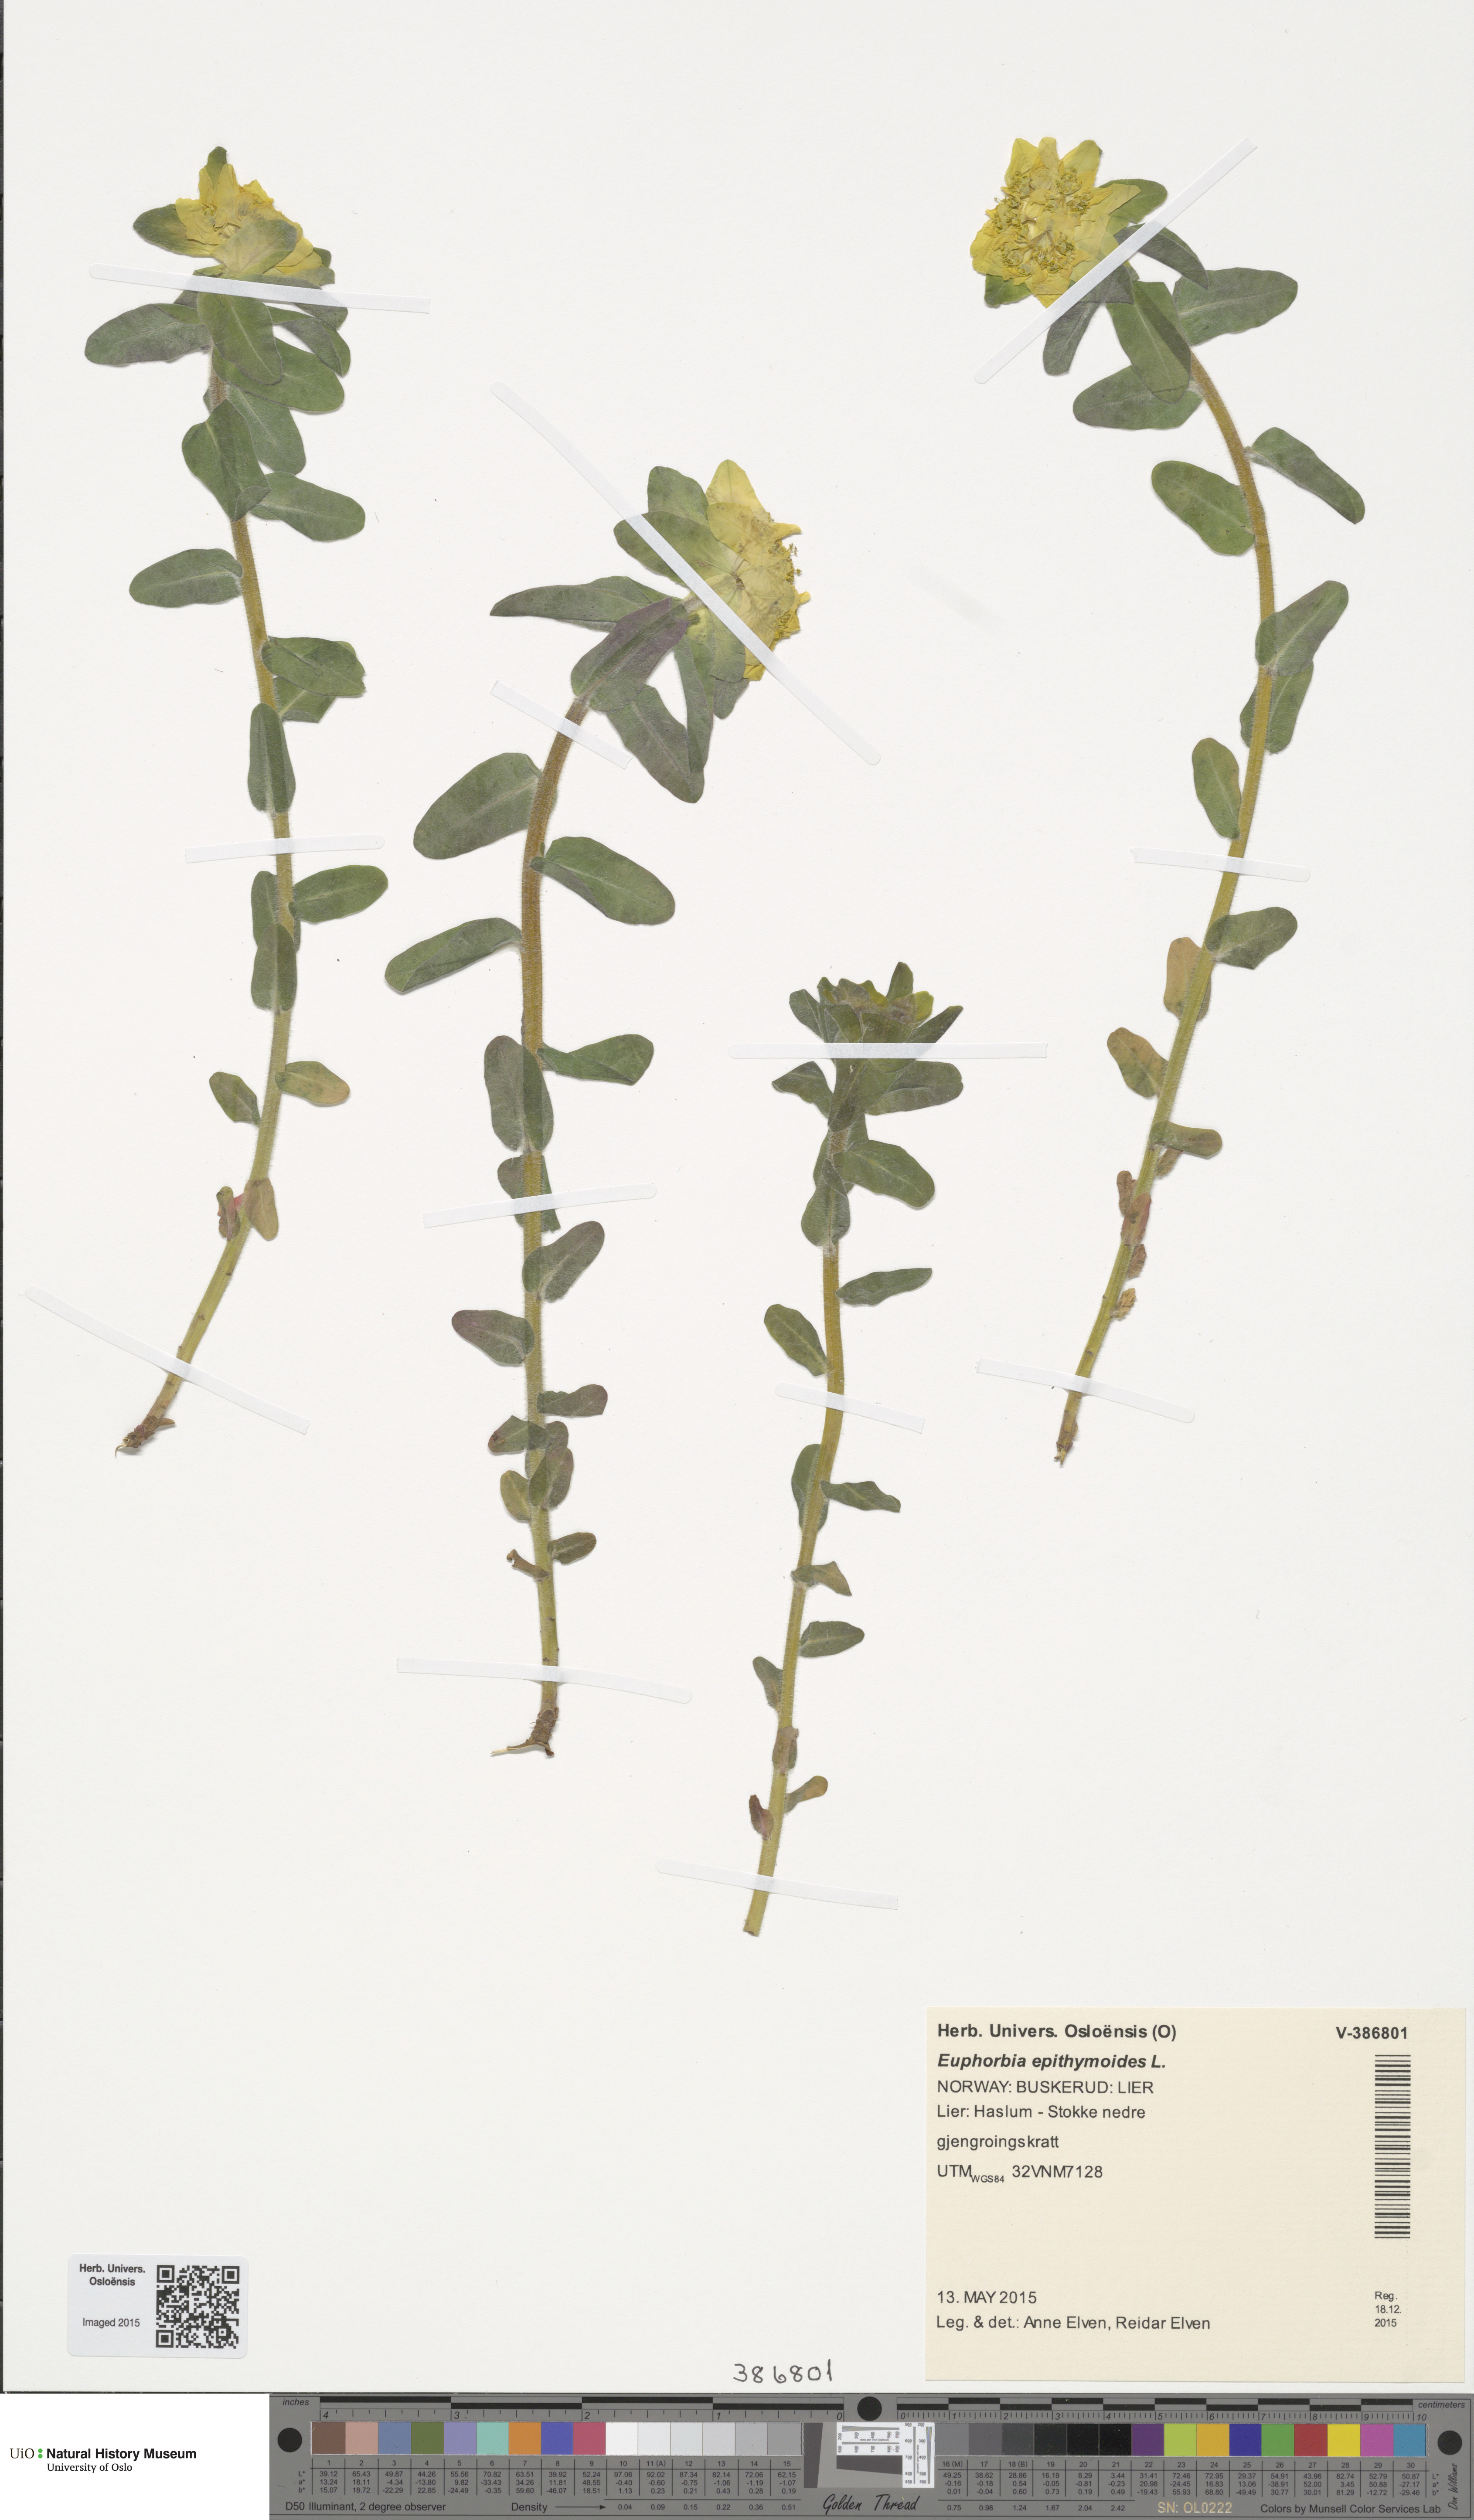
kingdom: Plantae
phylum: Tracheophyta
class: Magnoliopsida
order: Malpighiales
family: Euphorbiaceae
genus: Euphorbia
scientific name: Euphorbia epithymoides
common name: Cushion spurge
